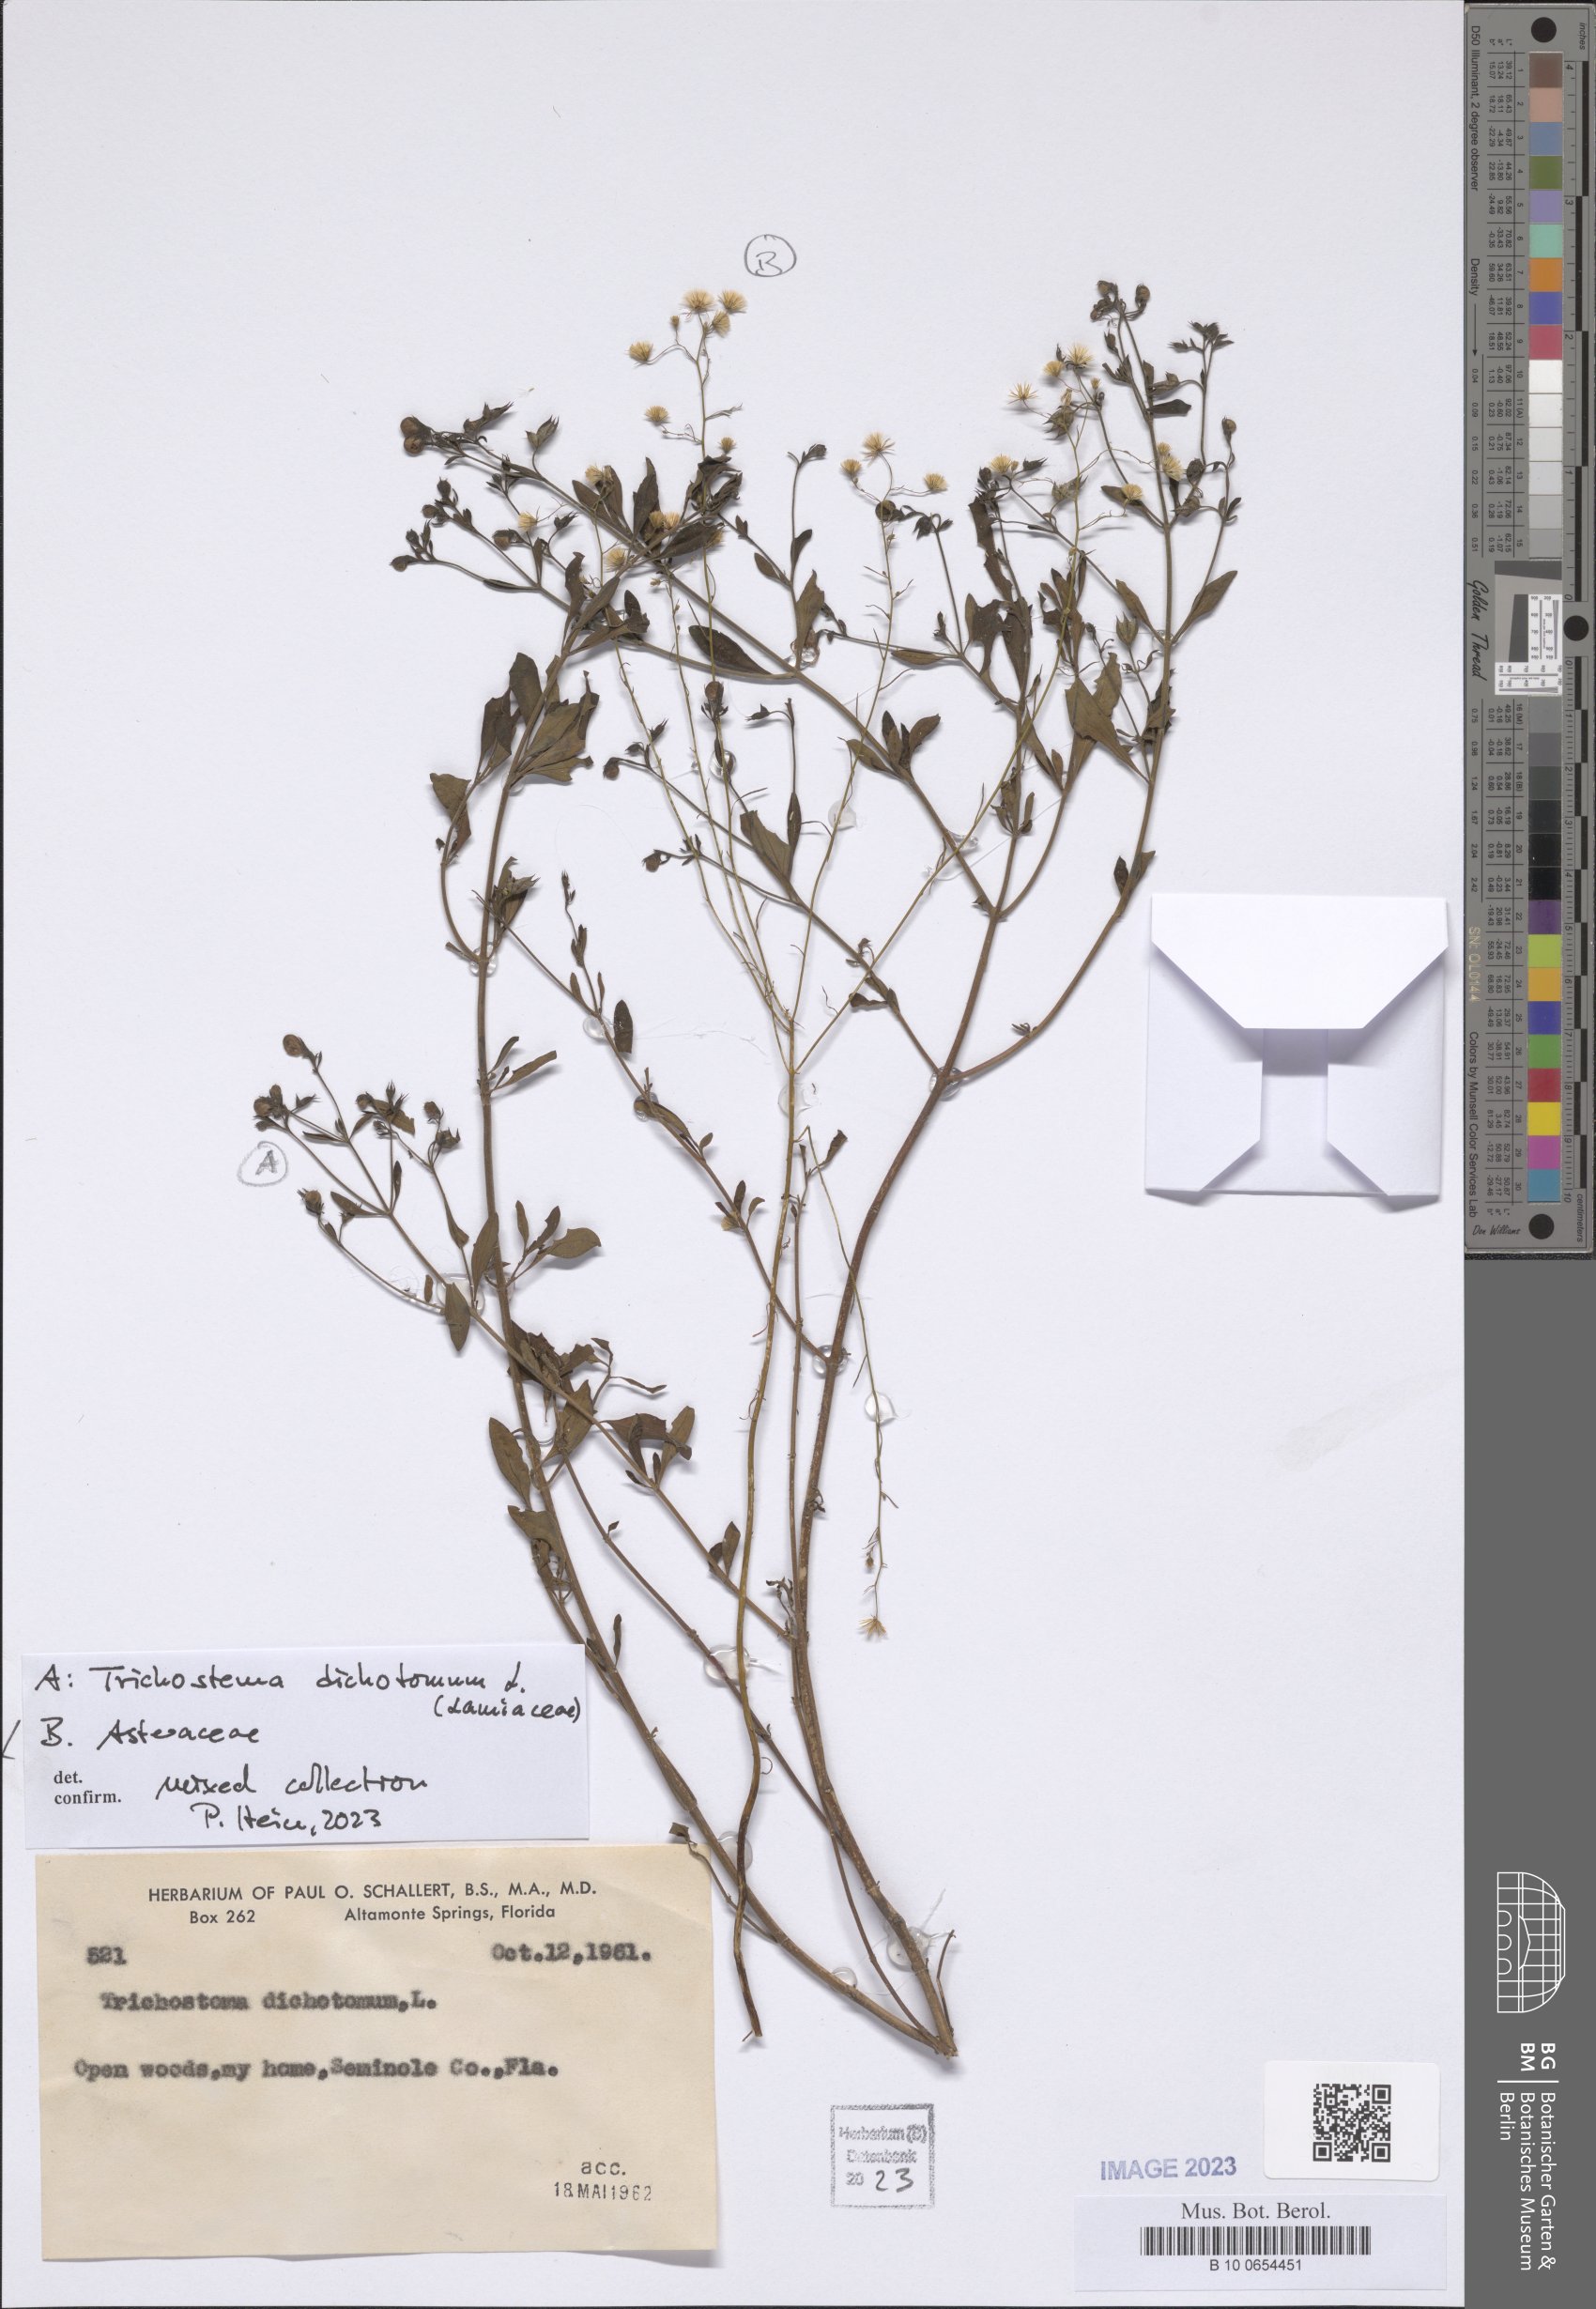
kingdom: Plantae
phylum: Tracheophyta
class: Magnoliopsida
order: Asterales
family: Asteraceae
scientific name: Asteraceae
